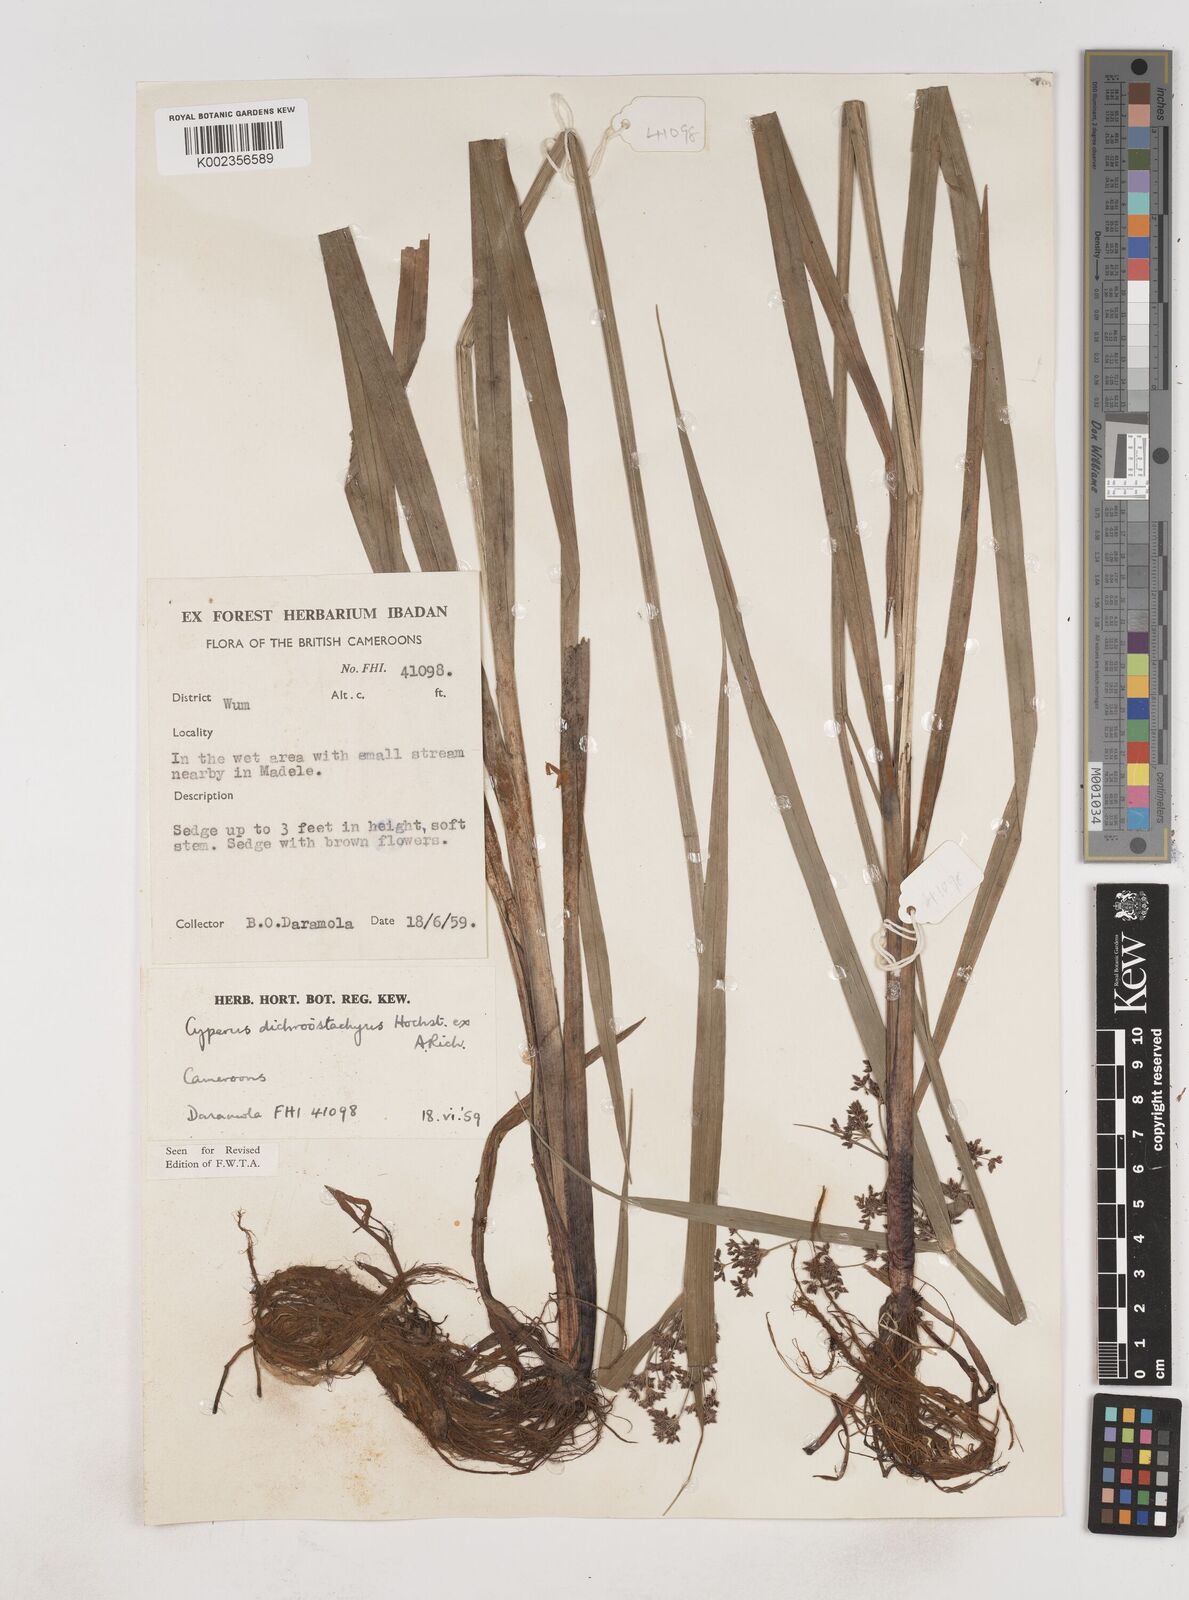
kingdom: Plantae
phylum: Tracheophyta
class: Liliopsida
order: Poales
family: Cyperaceae
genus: Cyperus
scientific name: Cyperus dichrostachyus
